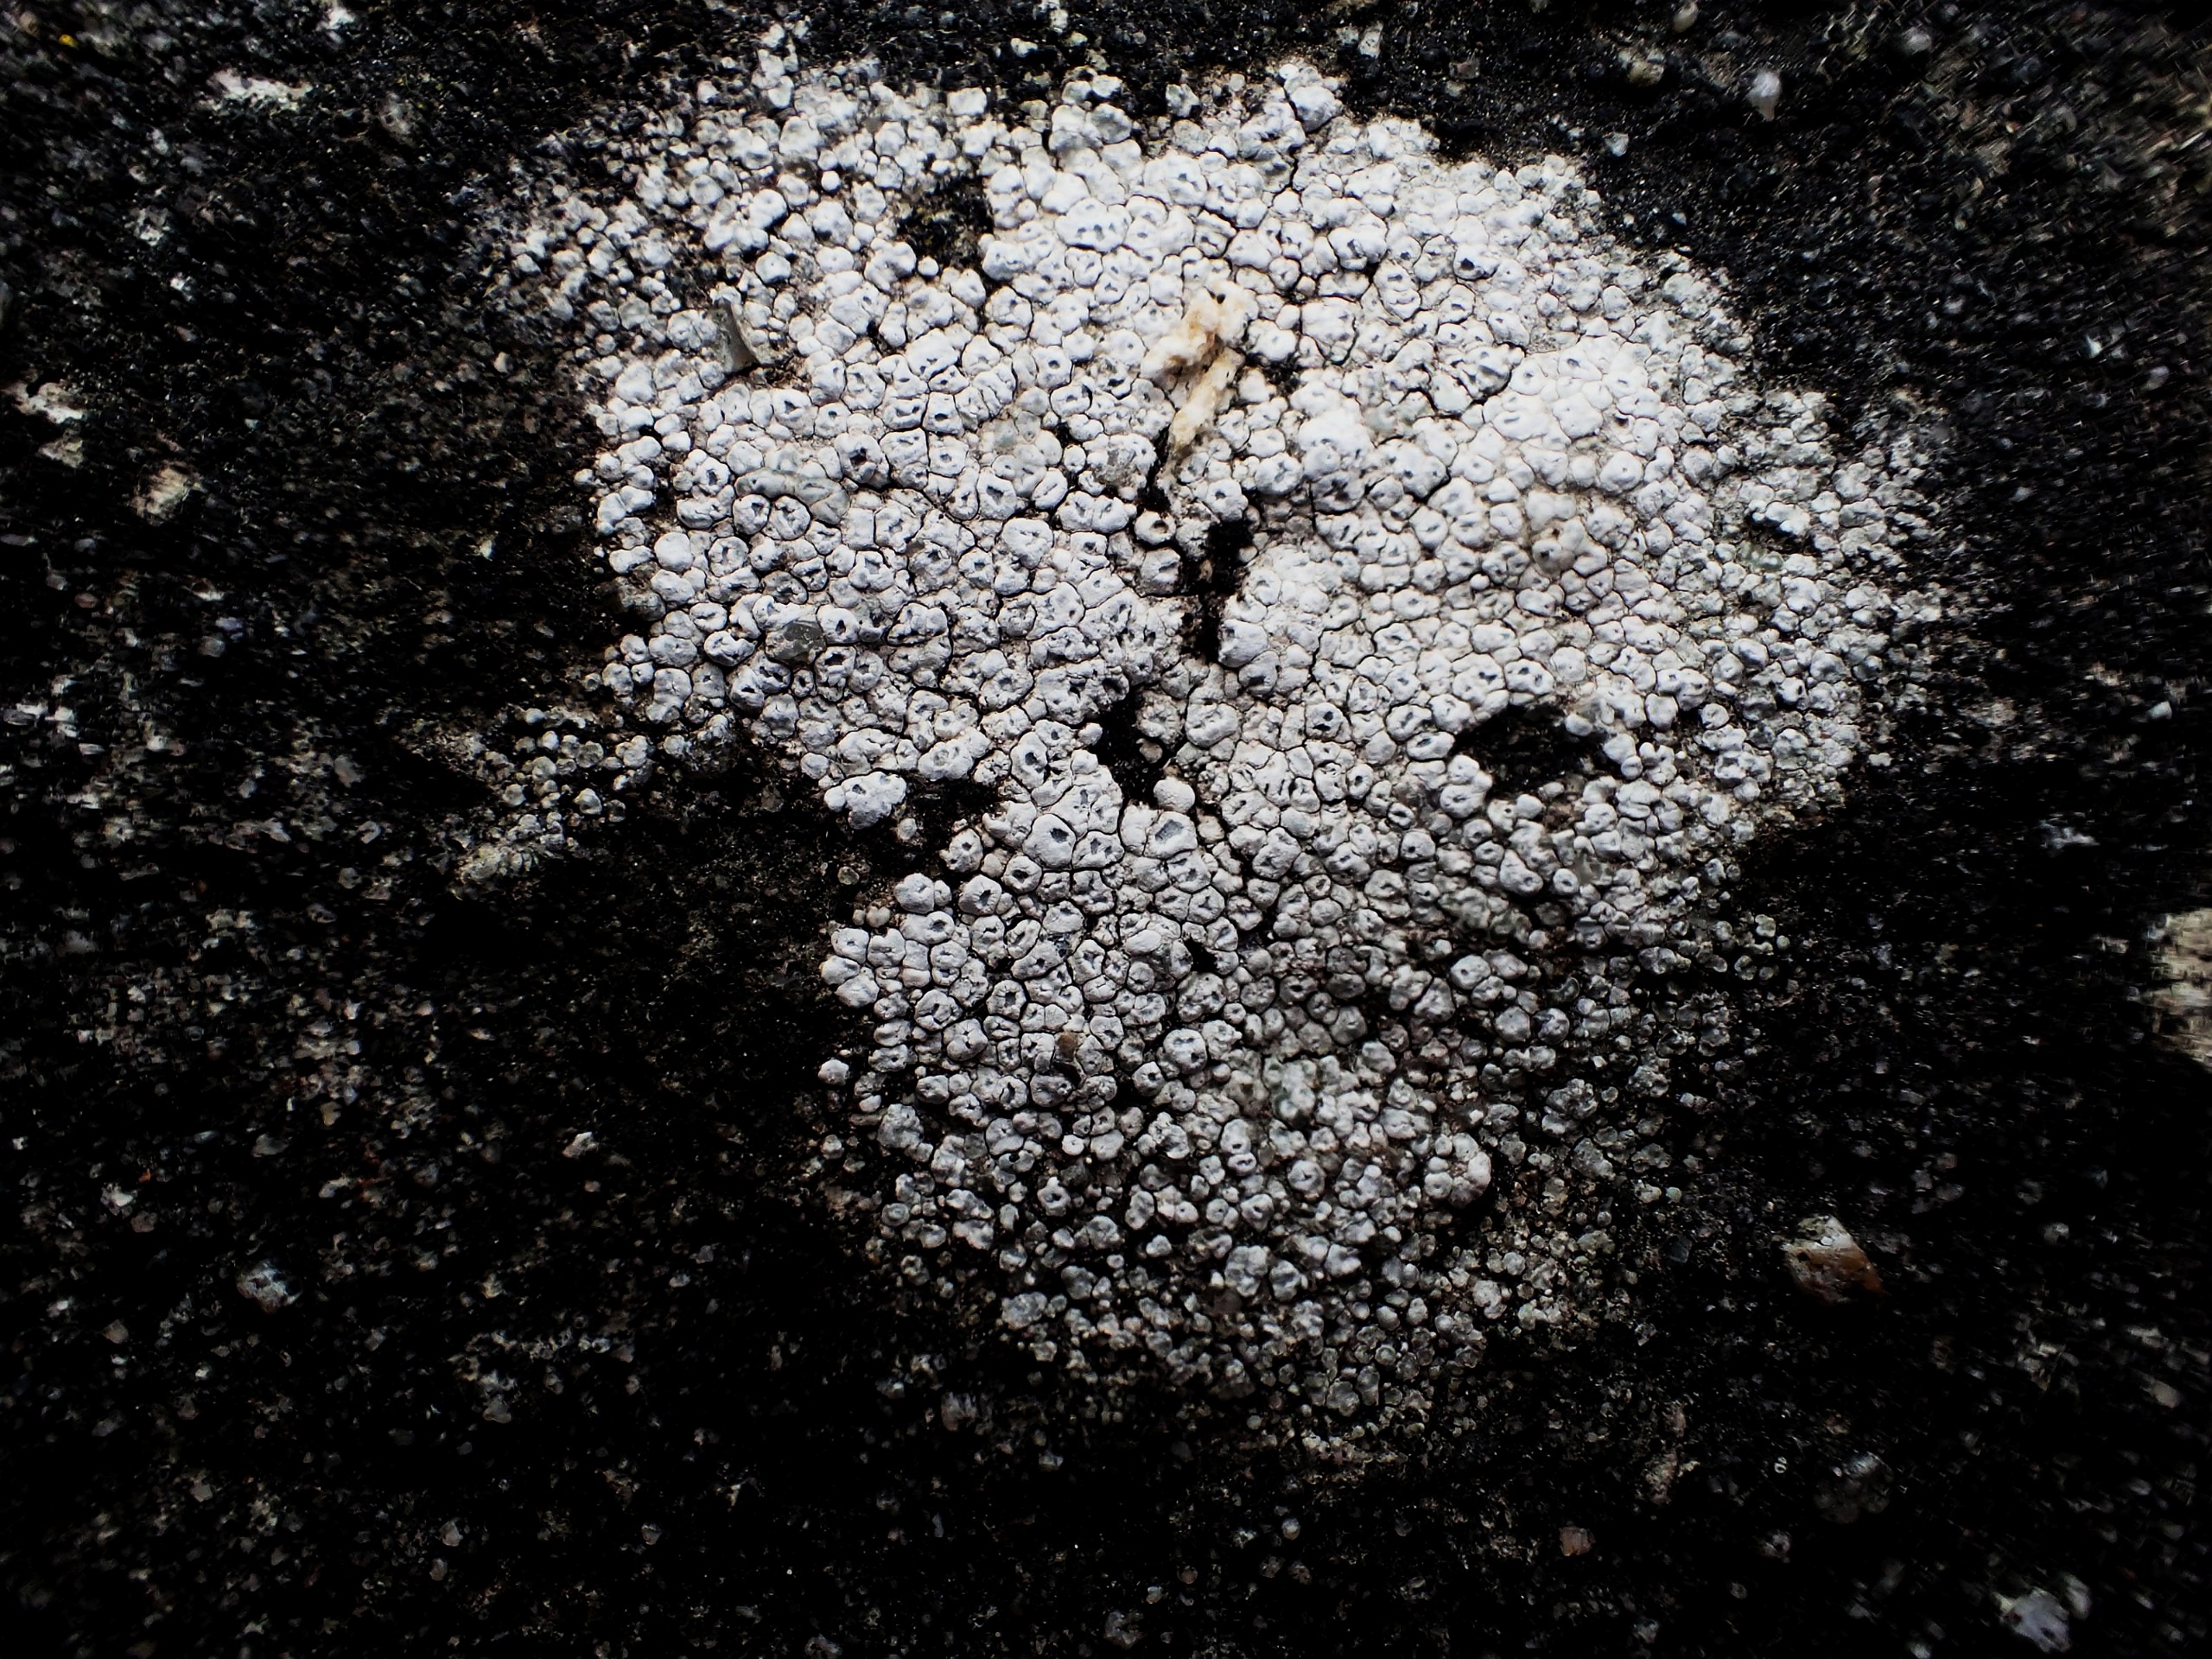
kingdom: Fungi
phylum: Ascomycota
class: Lecanoromycetes
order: Pertusariales
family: Megasporaceae
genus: Circinaria
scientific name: Circinaria contorta
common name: Indviklet hulskivelav
